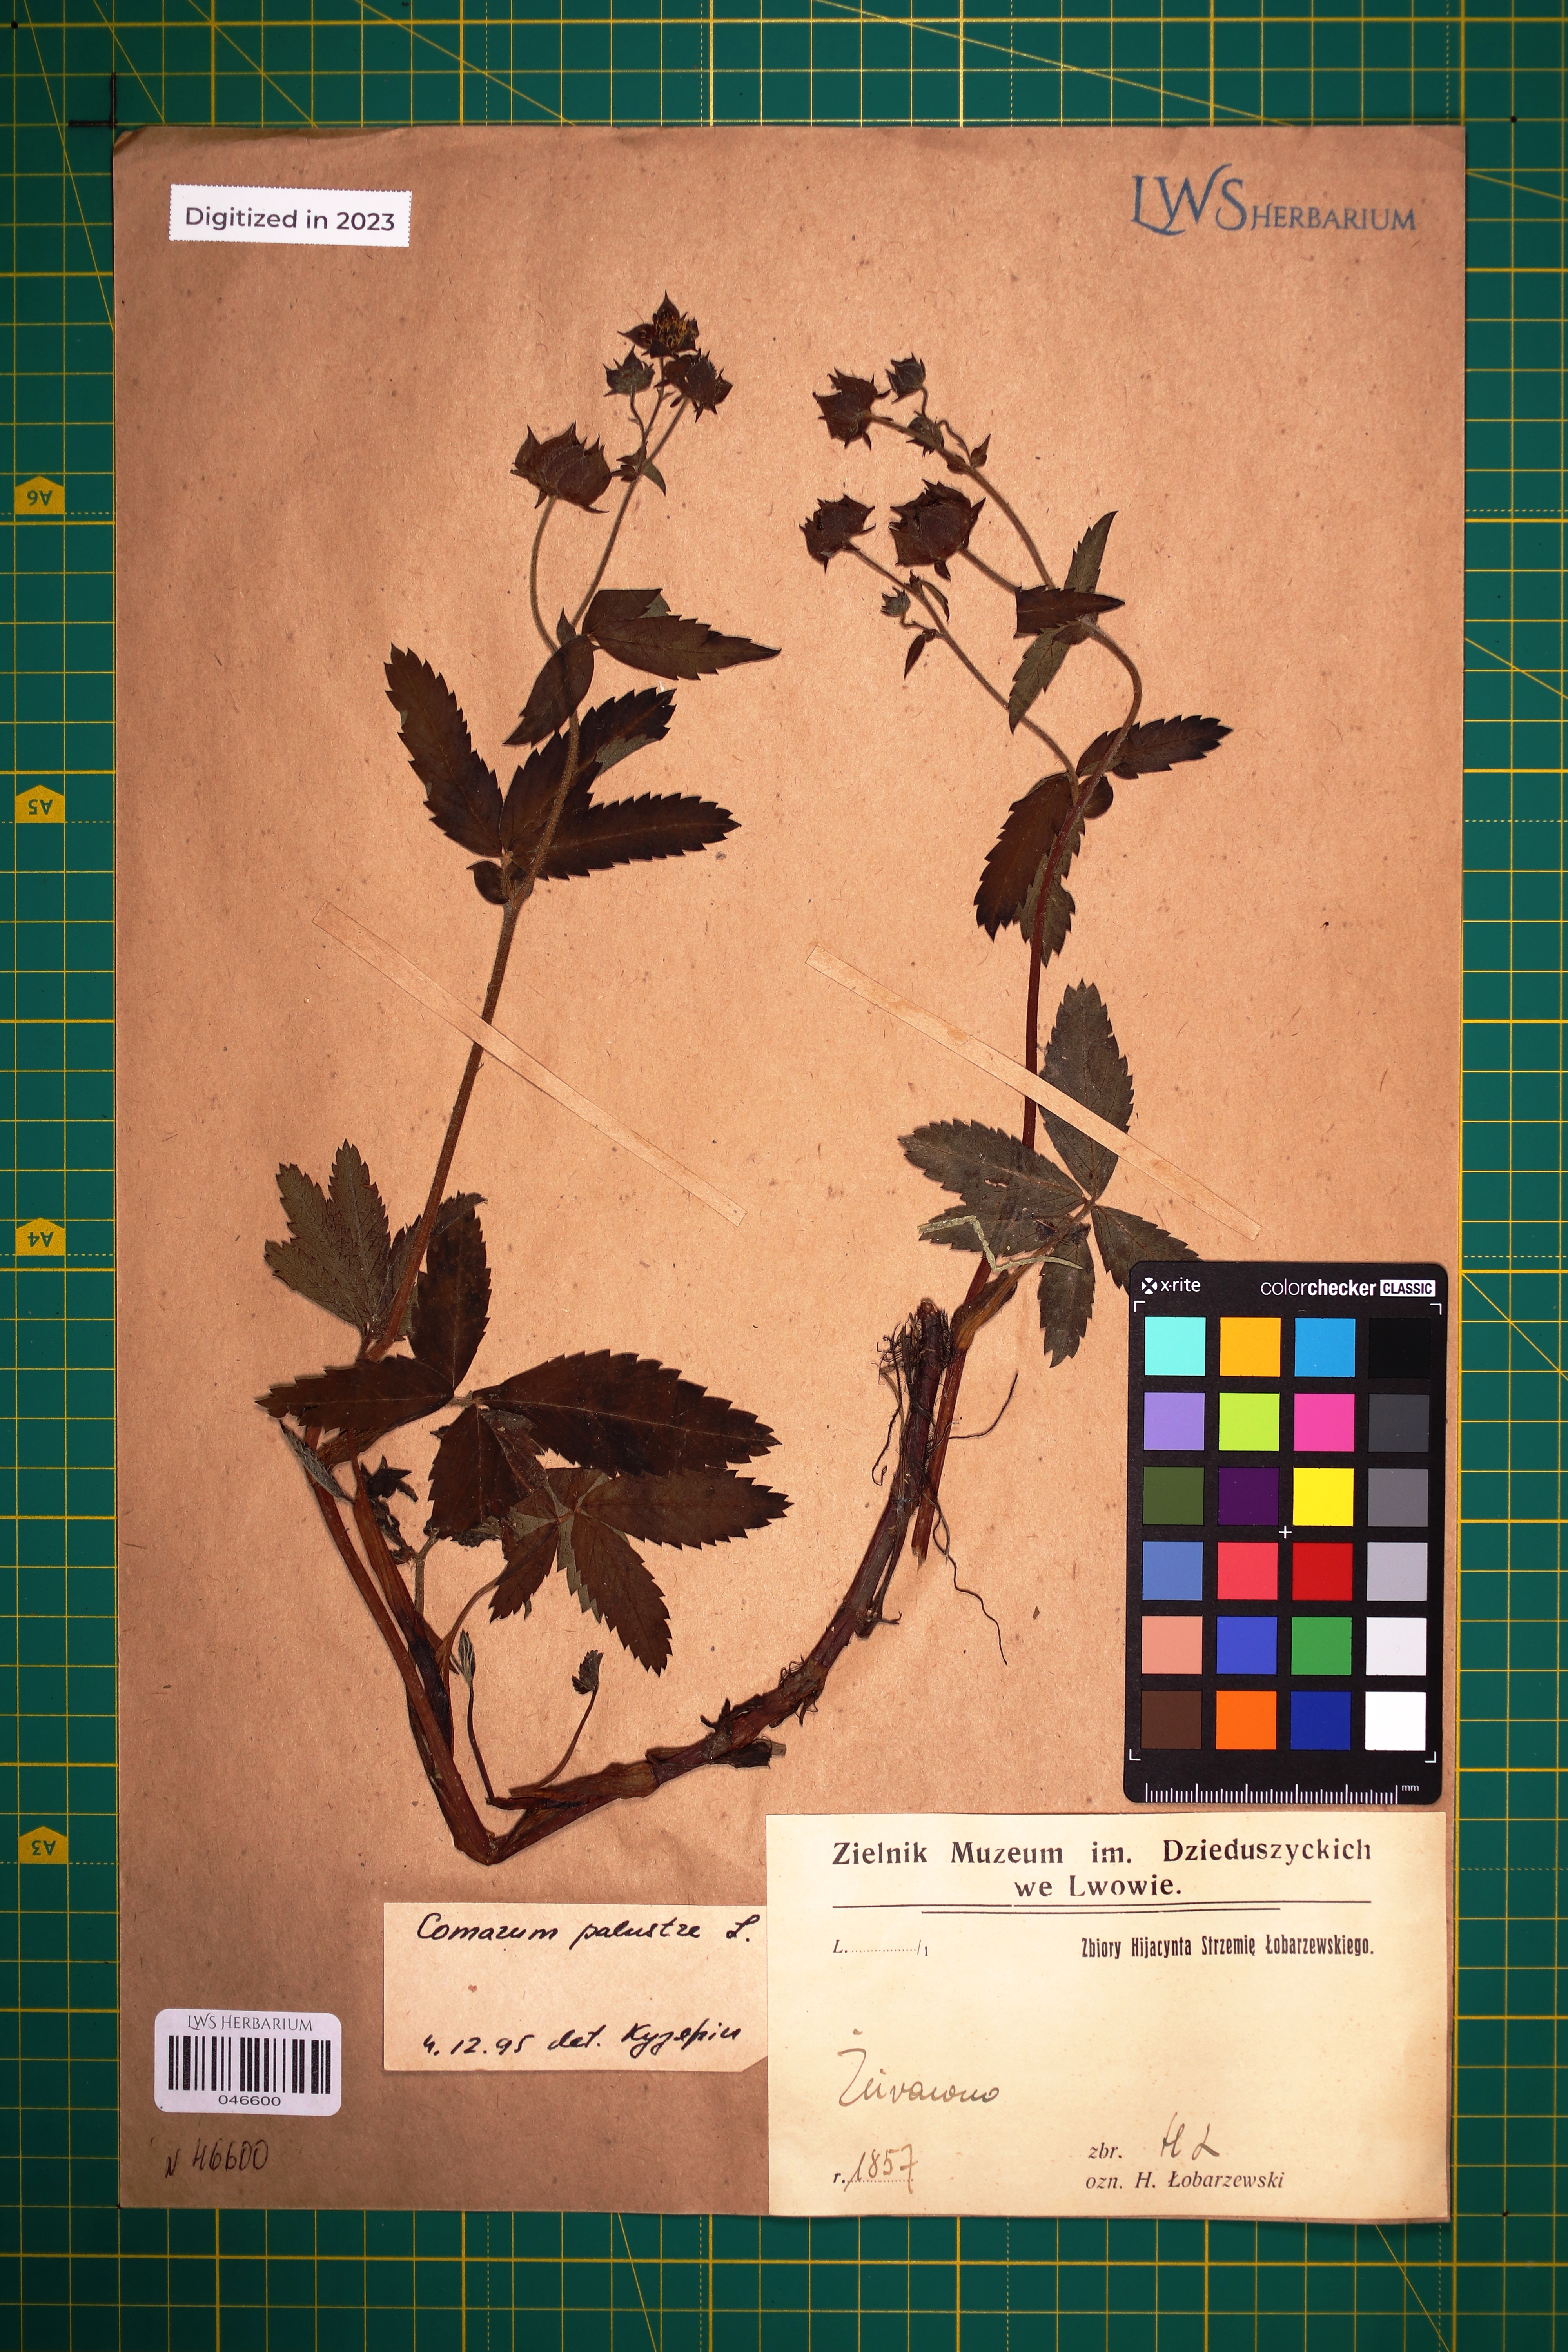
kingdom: Plantae
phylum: Tracheophyta
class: Magnoliopsida
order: Rosales
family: Rosaceae
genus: Comarum
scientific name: Comarum palustre
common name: Marsh cinquefoil
